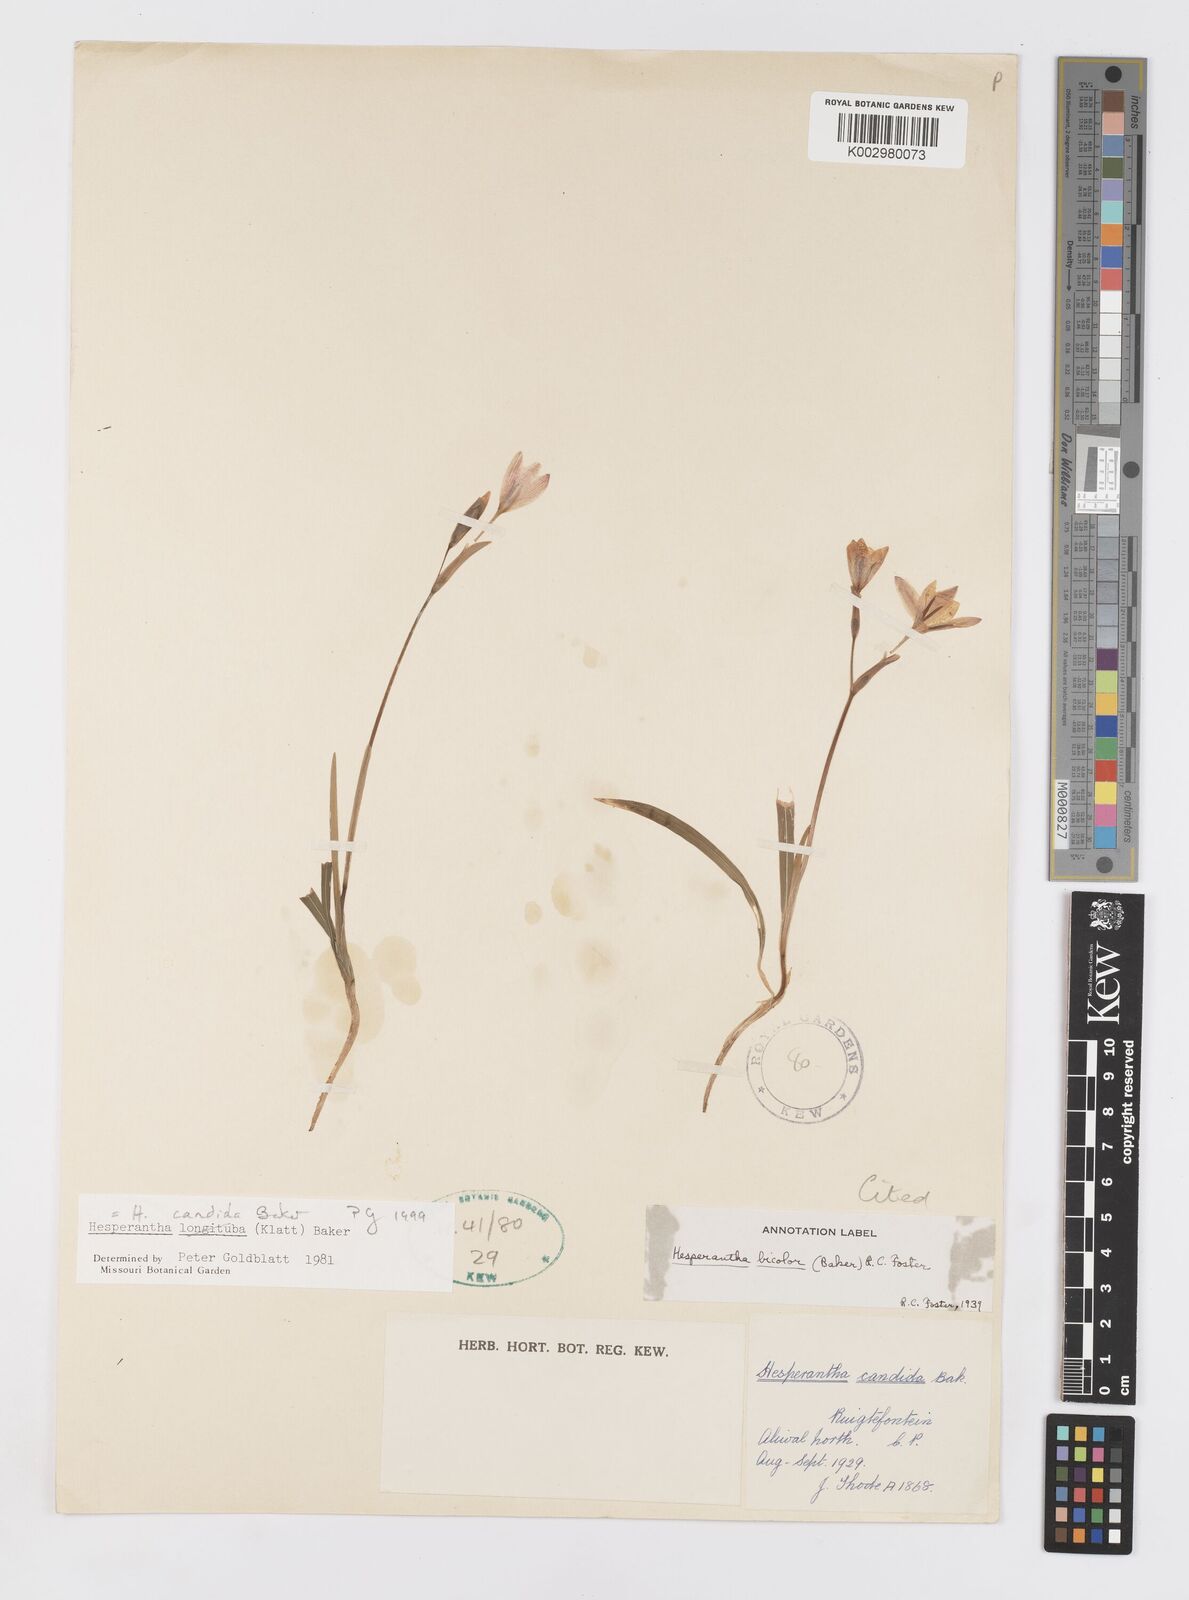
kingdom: Plantae
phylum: Tracheophyta
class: Liliopsida
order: Asparagales
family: Iridaceae
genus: Hesperantha
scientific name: Hesperantha candida
